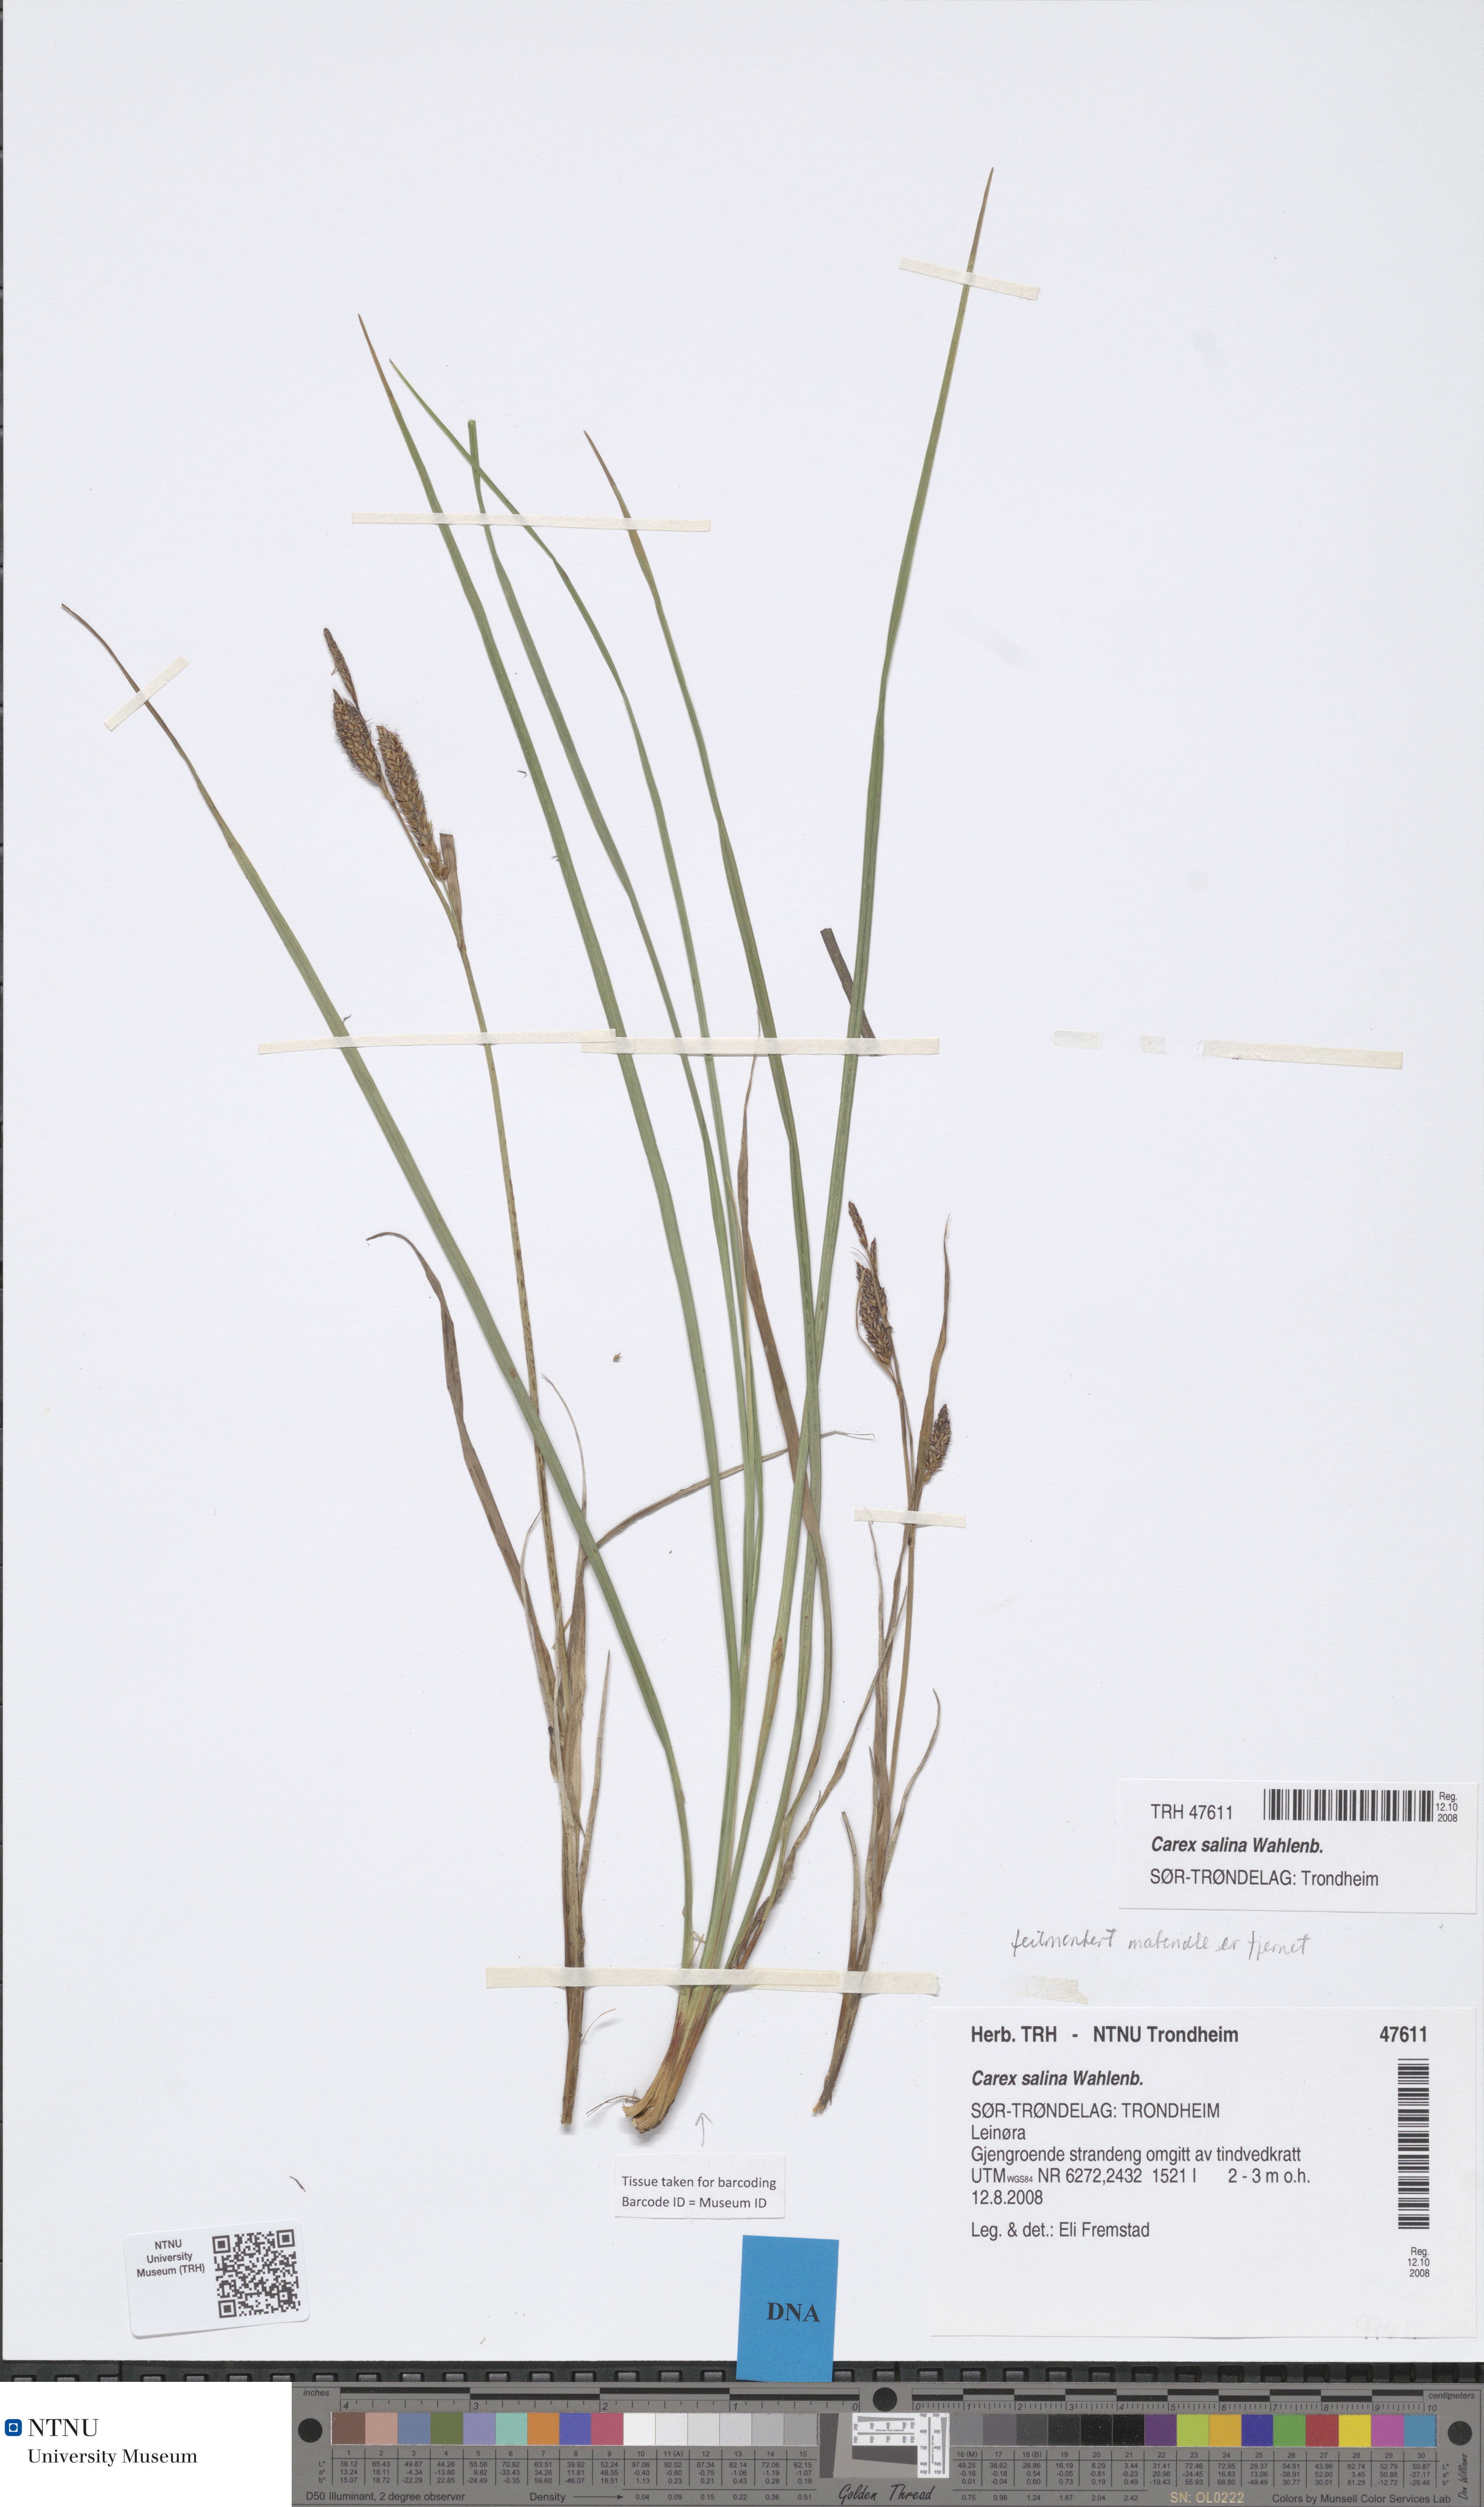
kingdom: Plantae
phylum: Tracheophyta
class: Liliopsida
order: Poales
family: Cyperaceae
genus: Carex
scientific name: Carex salina
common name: Saltmarsh sedge
